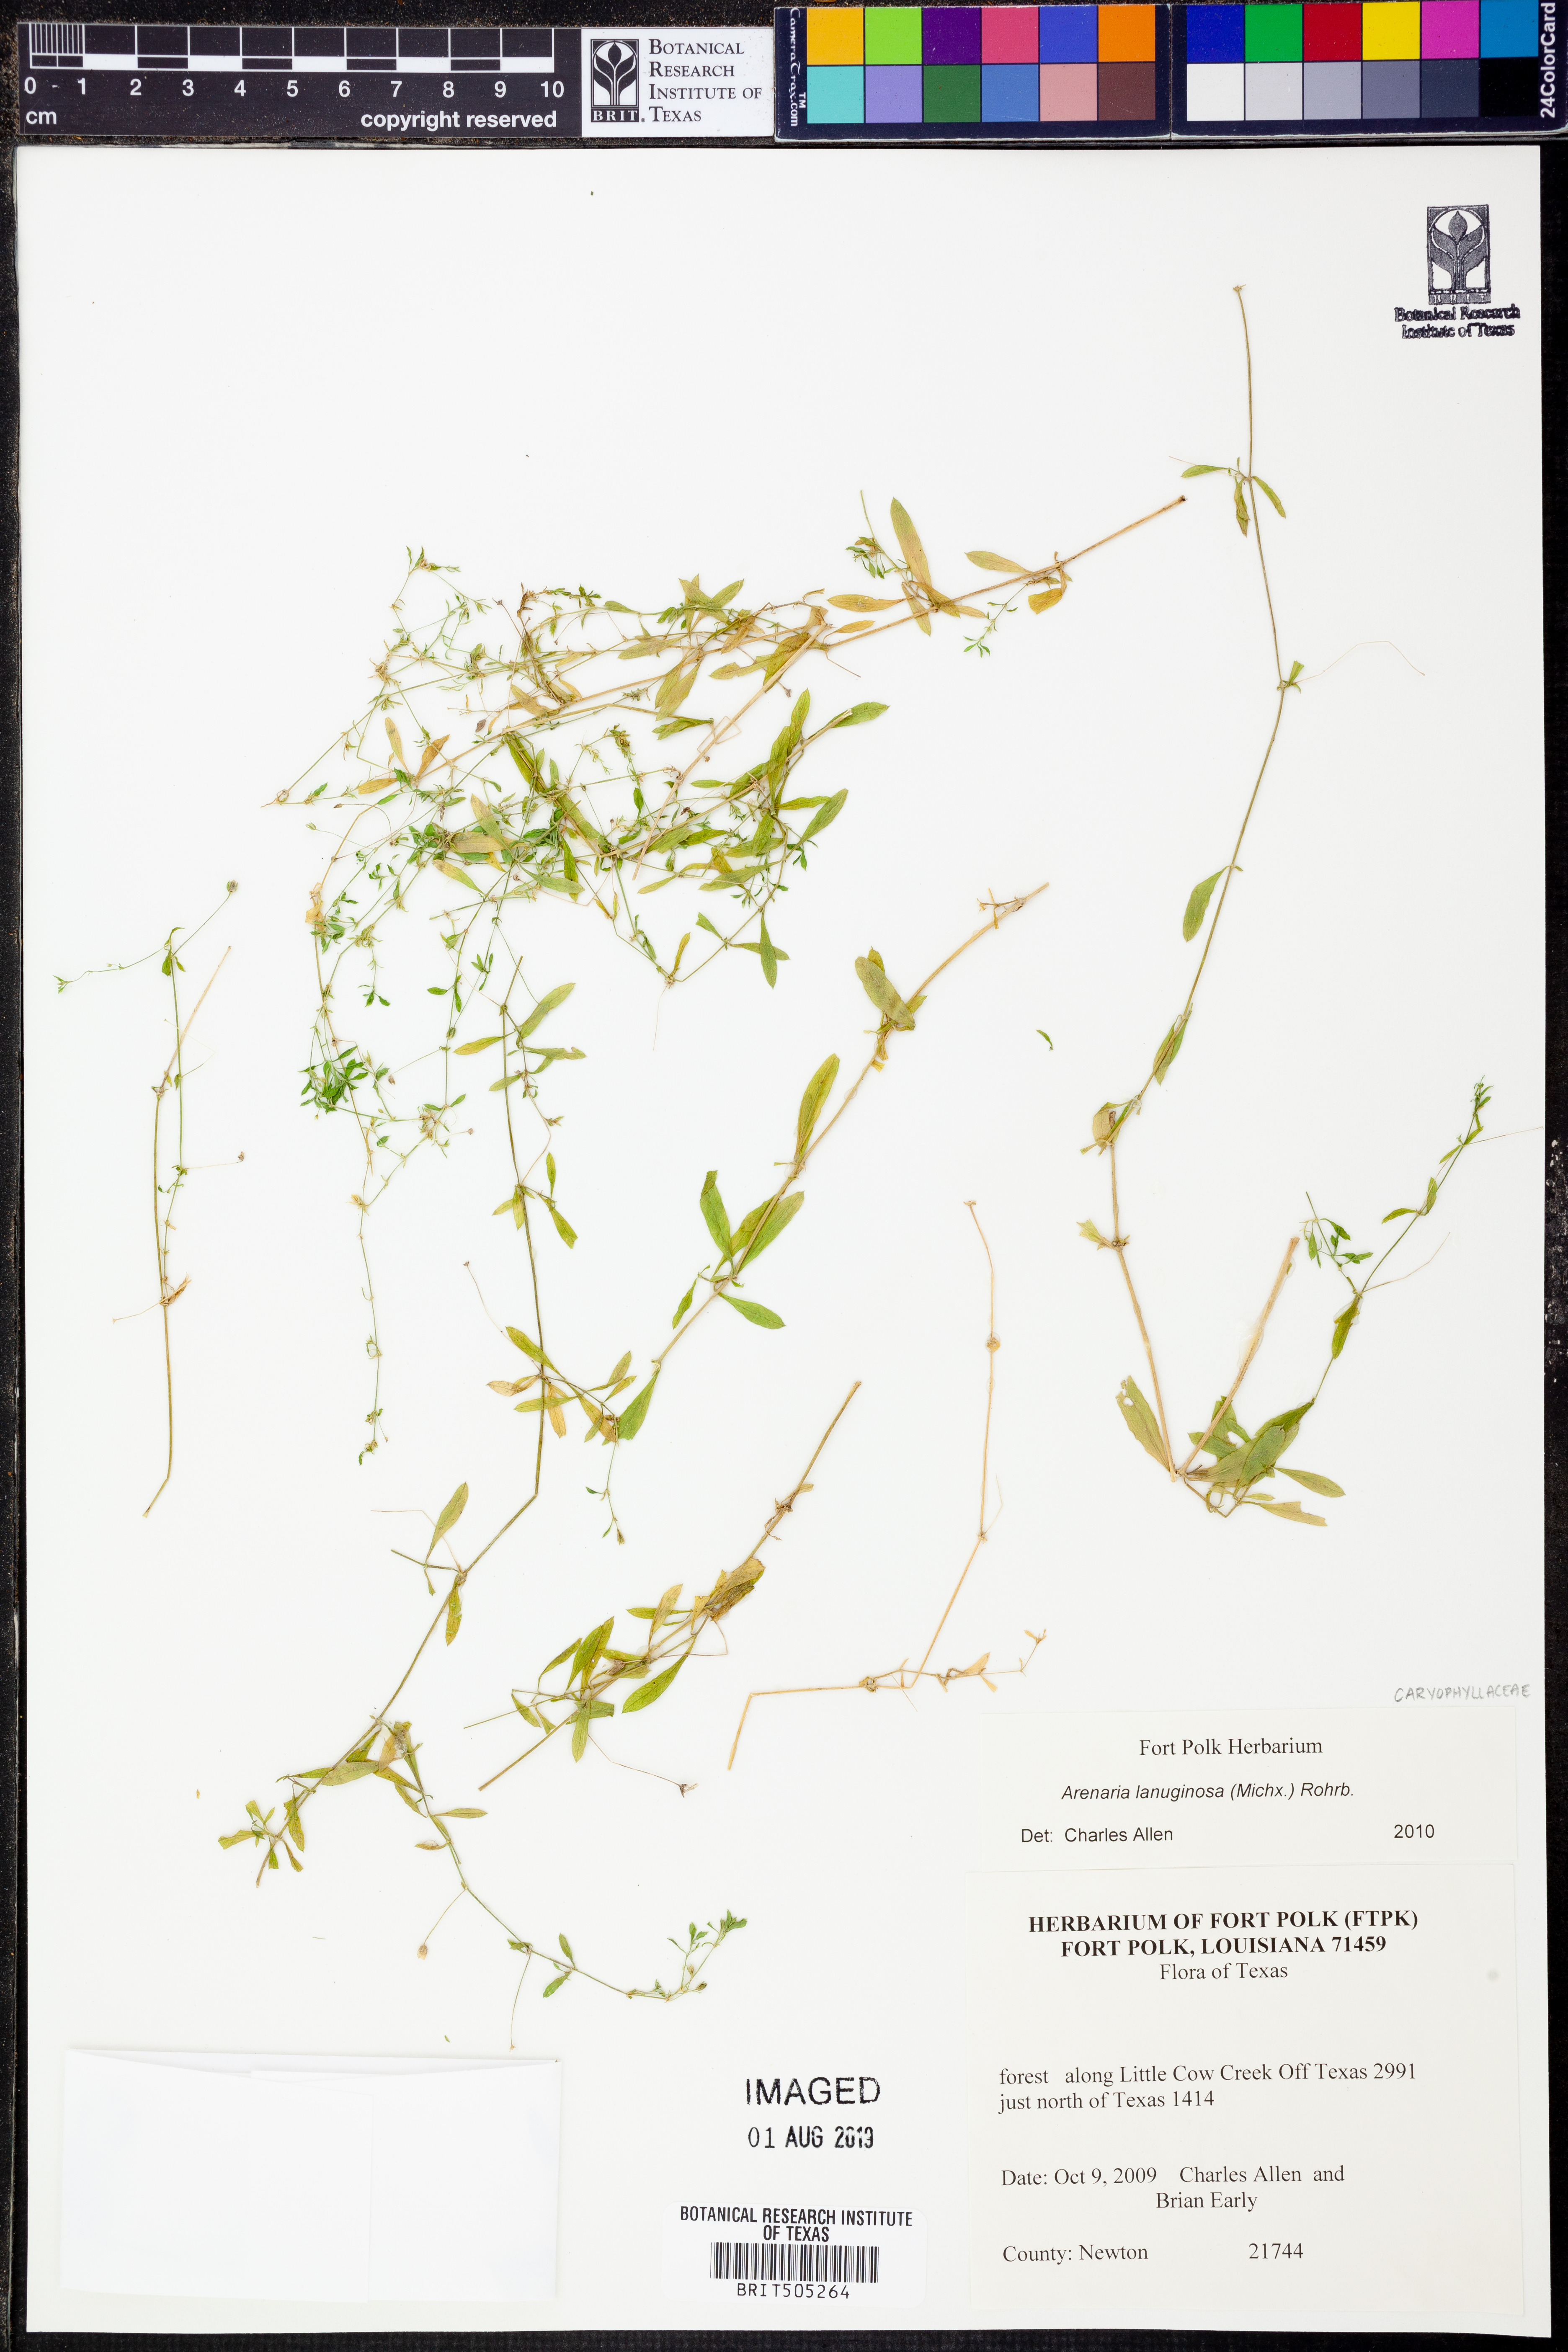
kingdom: Plantae
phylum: Tracheophyta
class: Magnoliopsida
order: Caryophyllales
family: Caryophyllaceae
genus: Arenaria
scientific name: Arenaria lanuginosa
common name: Spread sandwort
